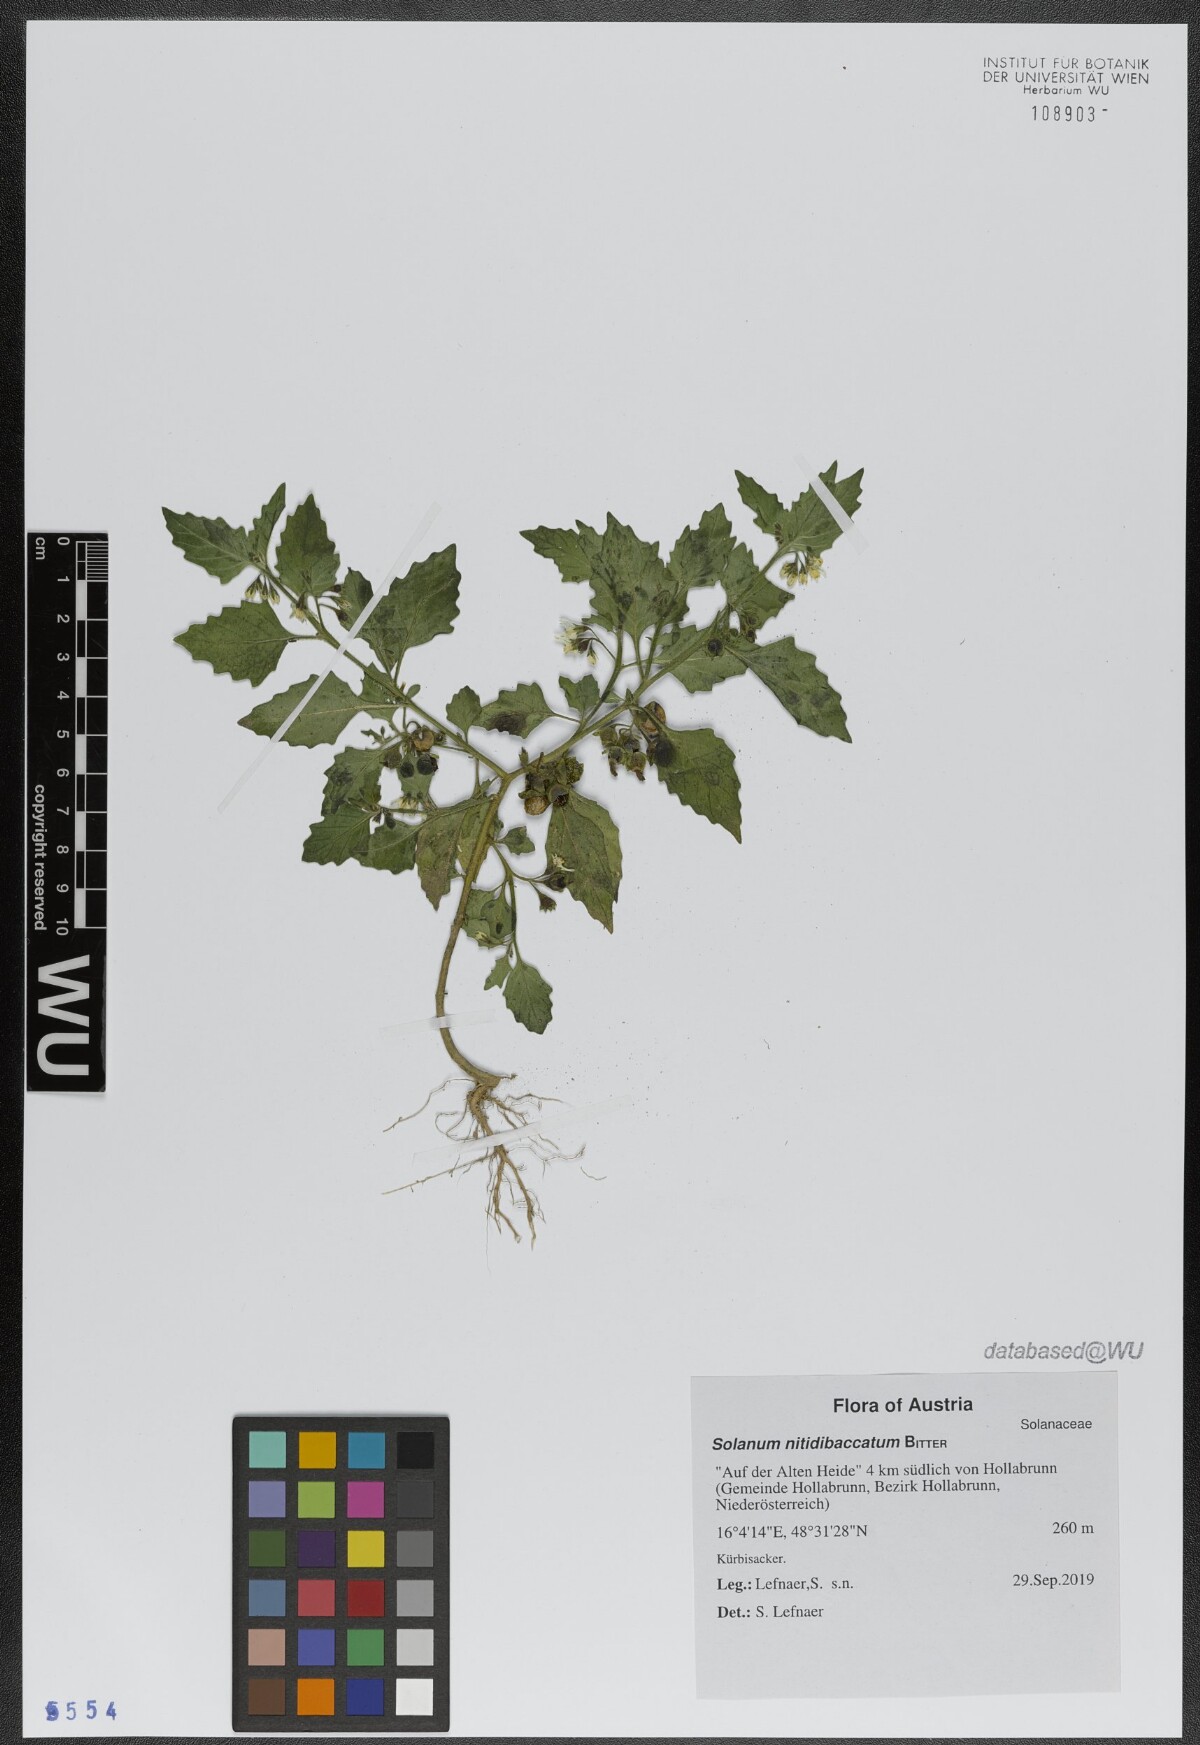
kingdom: Plantae
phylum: Tracheophyta
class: Magnoliopsida
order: Solanales
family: Solanaceae
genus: Solanum
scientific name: Solanum nitidibaccatum
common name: Hairy nightshade
